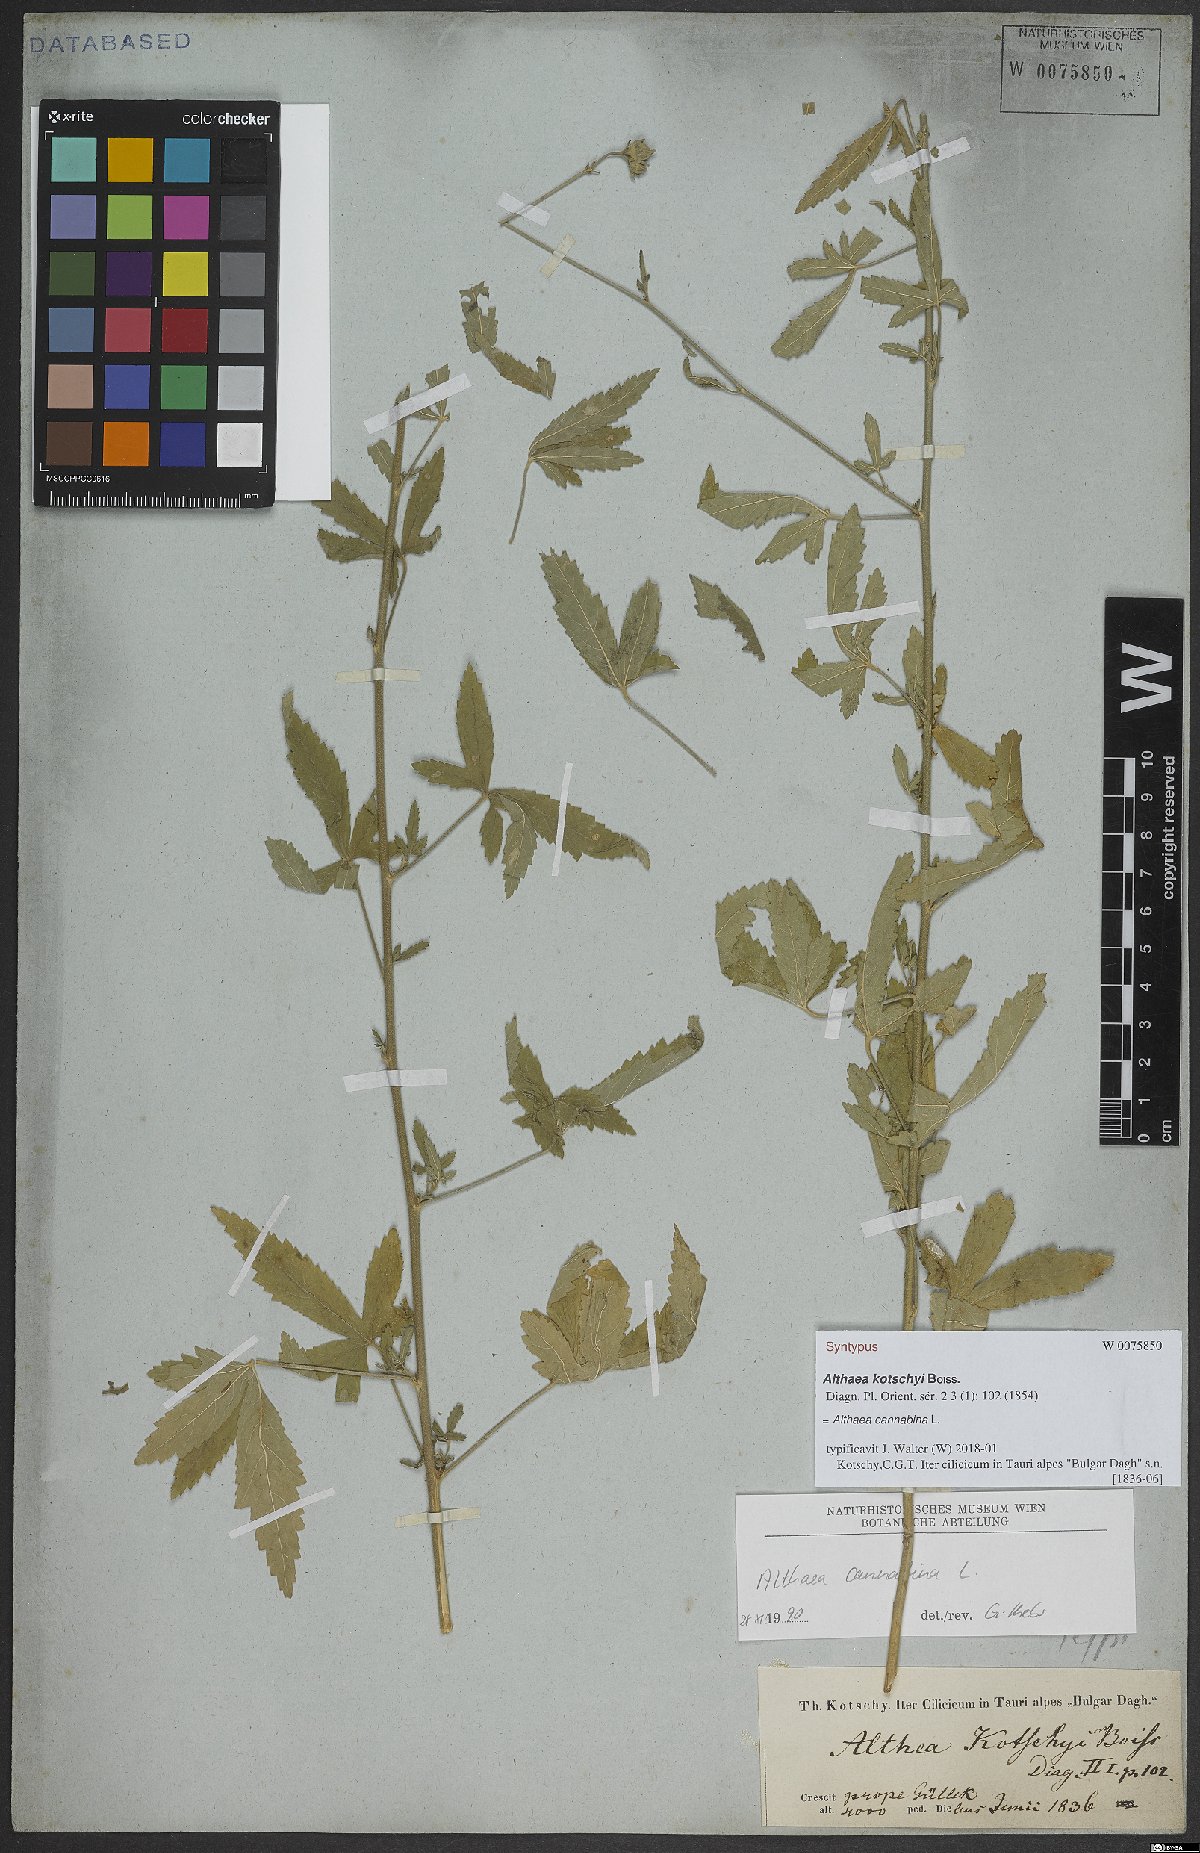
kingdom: Plantae
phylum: Tracheophyta
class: Magnoliopsida
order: Malvales
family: Malvaceae
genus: Althaea
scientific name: Althaea cannabina
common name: Palm-leaf marshmallow
